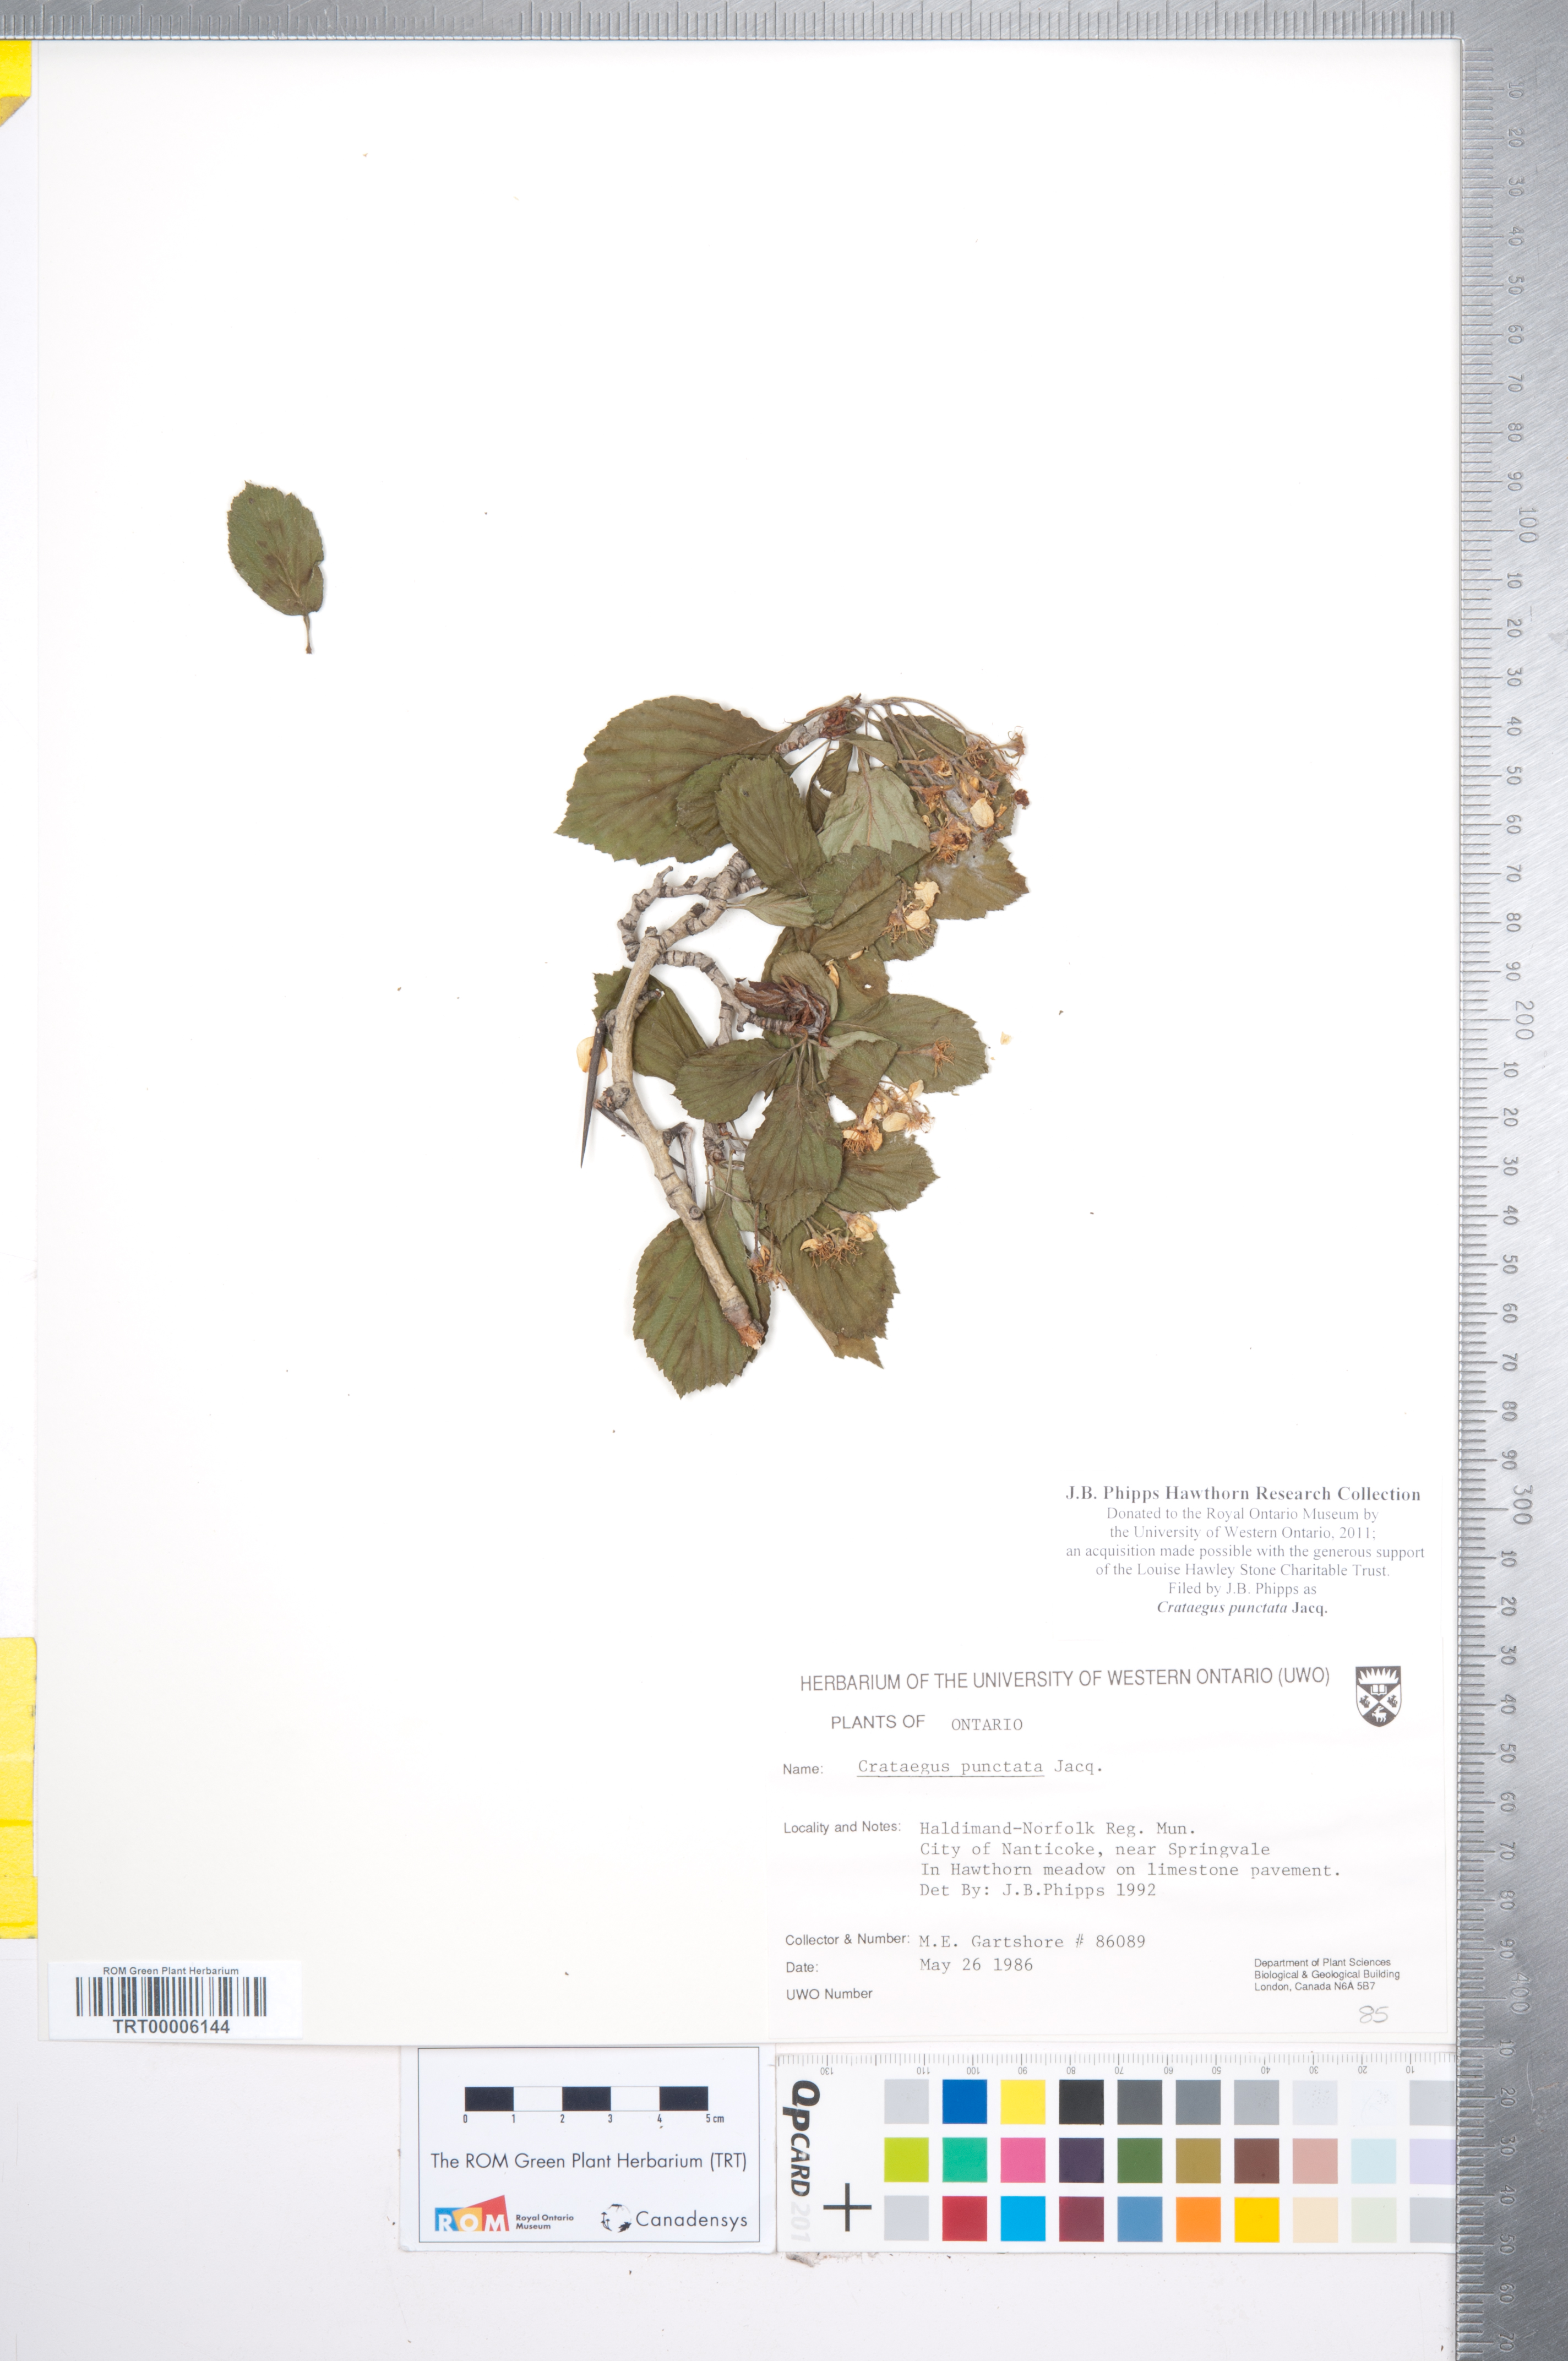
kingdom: Plantae
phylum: Tracheophyta
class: Magnoliopsida
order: Rosales
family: Rosaceae
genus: Crataegus
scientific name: Crataegus punctata
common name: Dotted hawthorn
